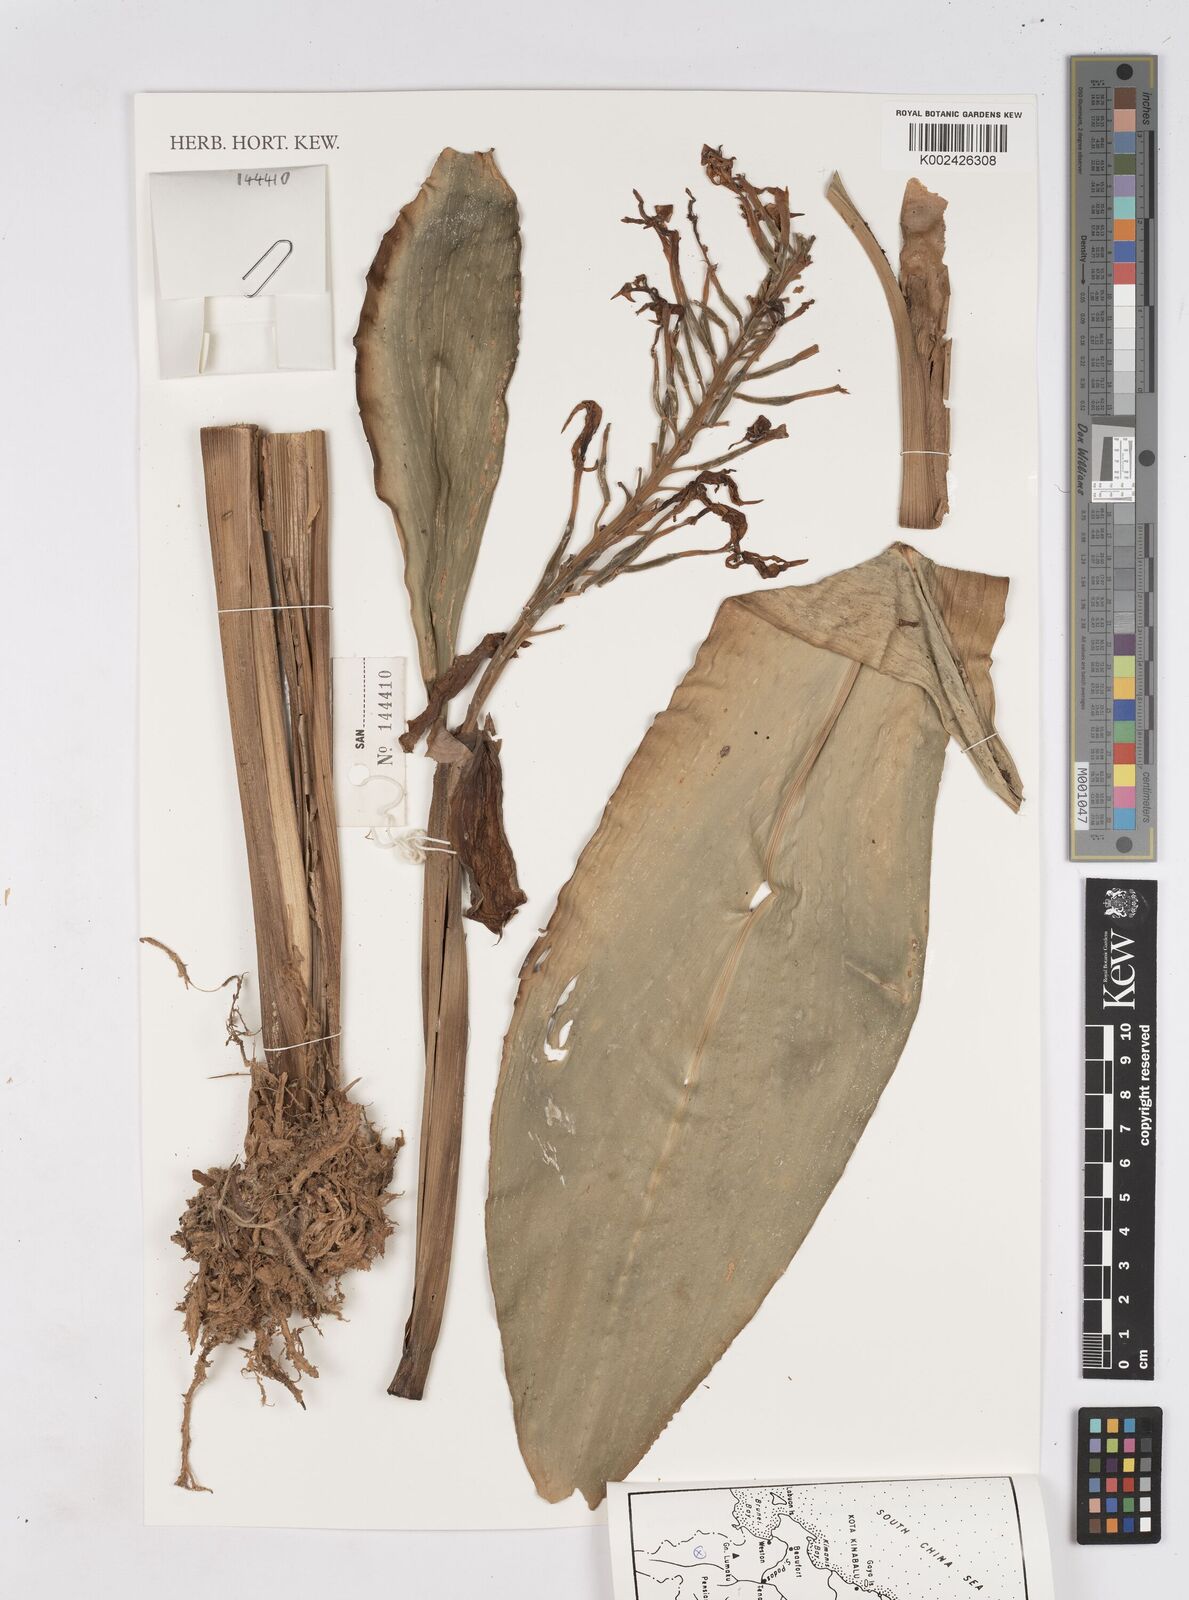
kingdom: Plantae
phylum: Tracheophyta
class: Liliopsida
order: Zingiberales
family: Zingiberaceae
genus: Burbidgea
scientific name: Burbidgea schizocheila
